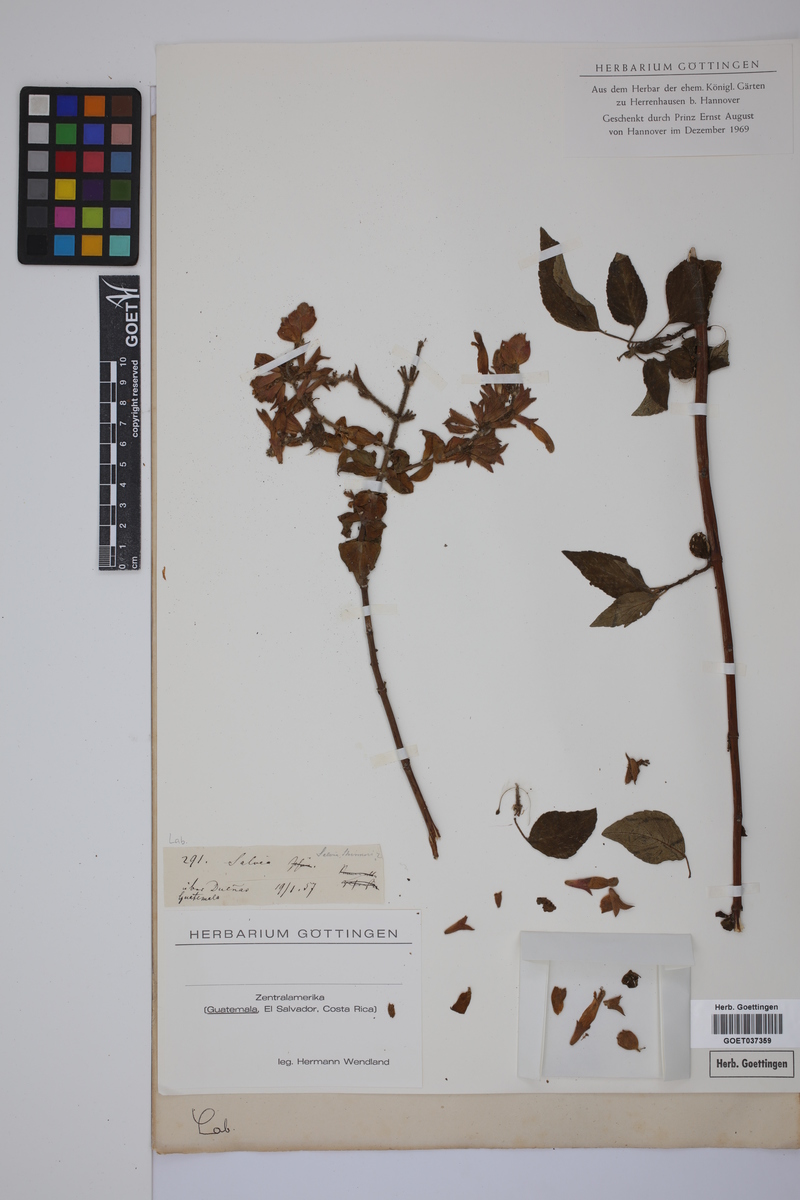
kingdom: Plantae
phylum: Tracheophyta
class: Magnoliopsida
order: Lamiales
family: Lamiaceae
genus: Salvia
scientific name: Salvia
